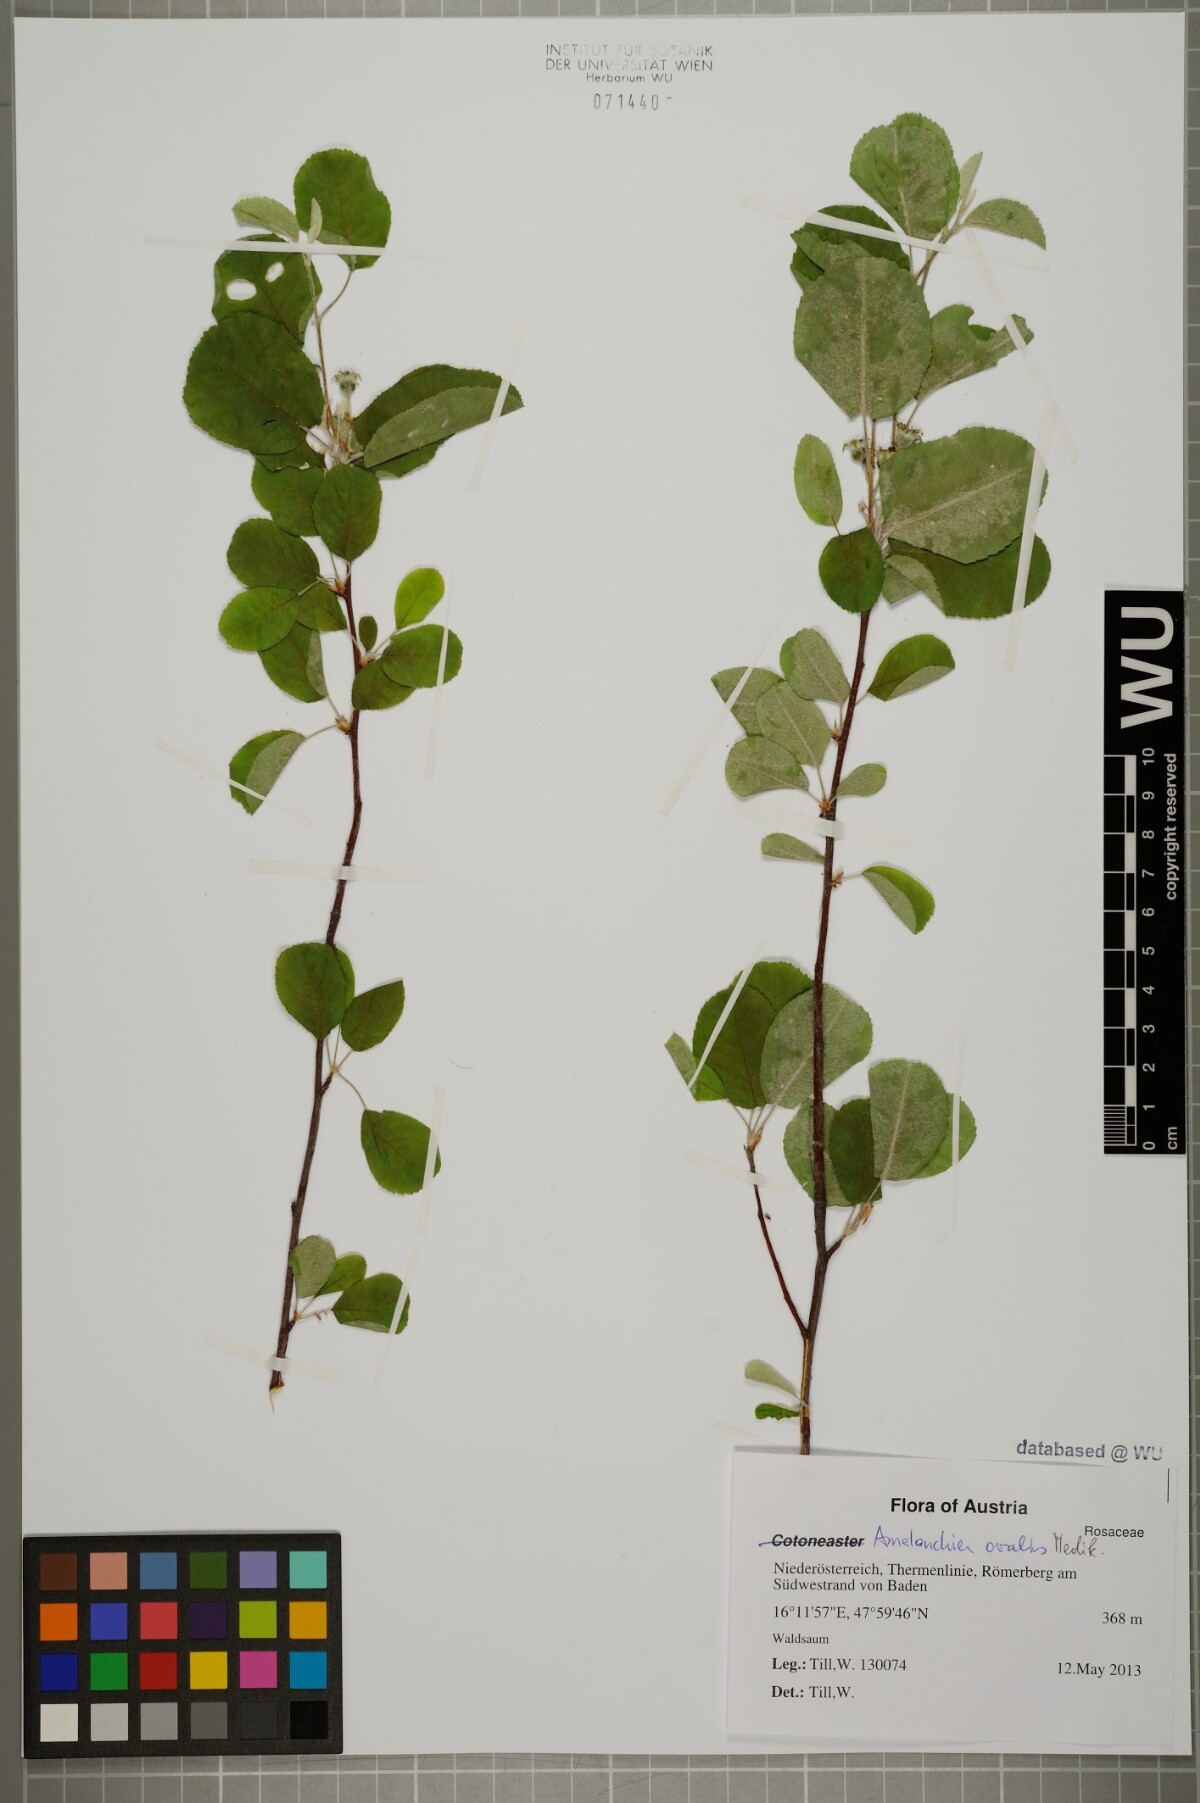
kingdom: Plantae
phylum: Tracheophyta
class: Magnoliopsida
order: Rosales
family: Rosaceae
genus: Amelanchier
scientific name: Amelanchier ovalis
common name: Serviceberry
